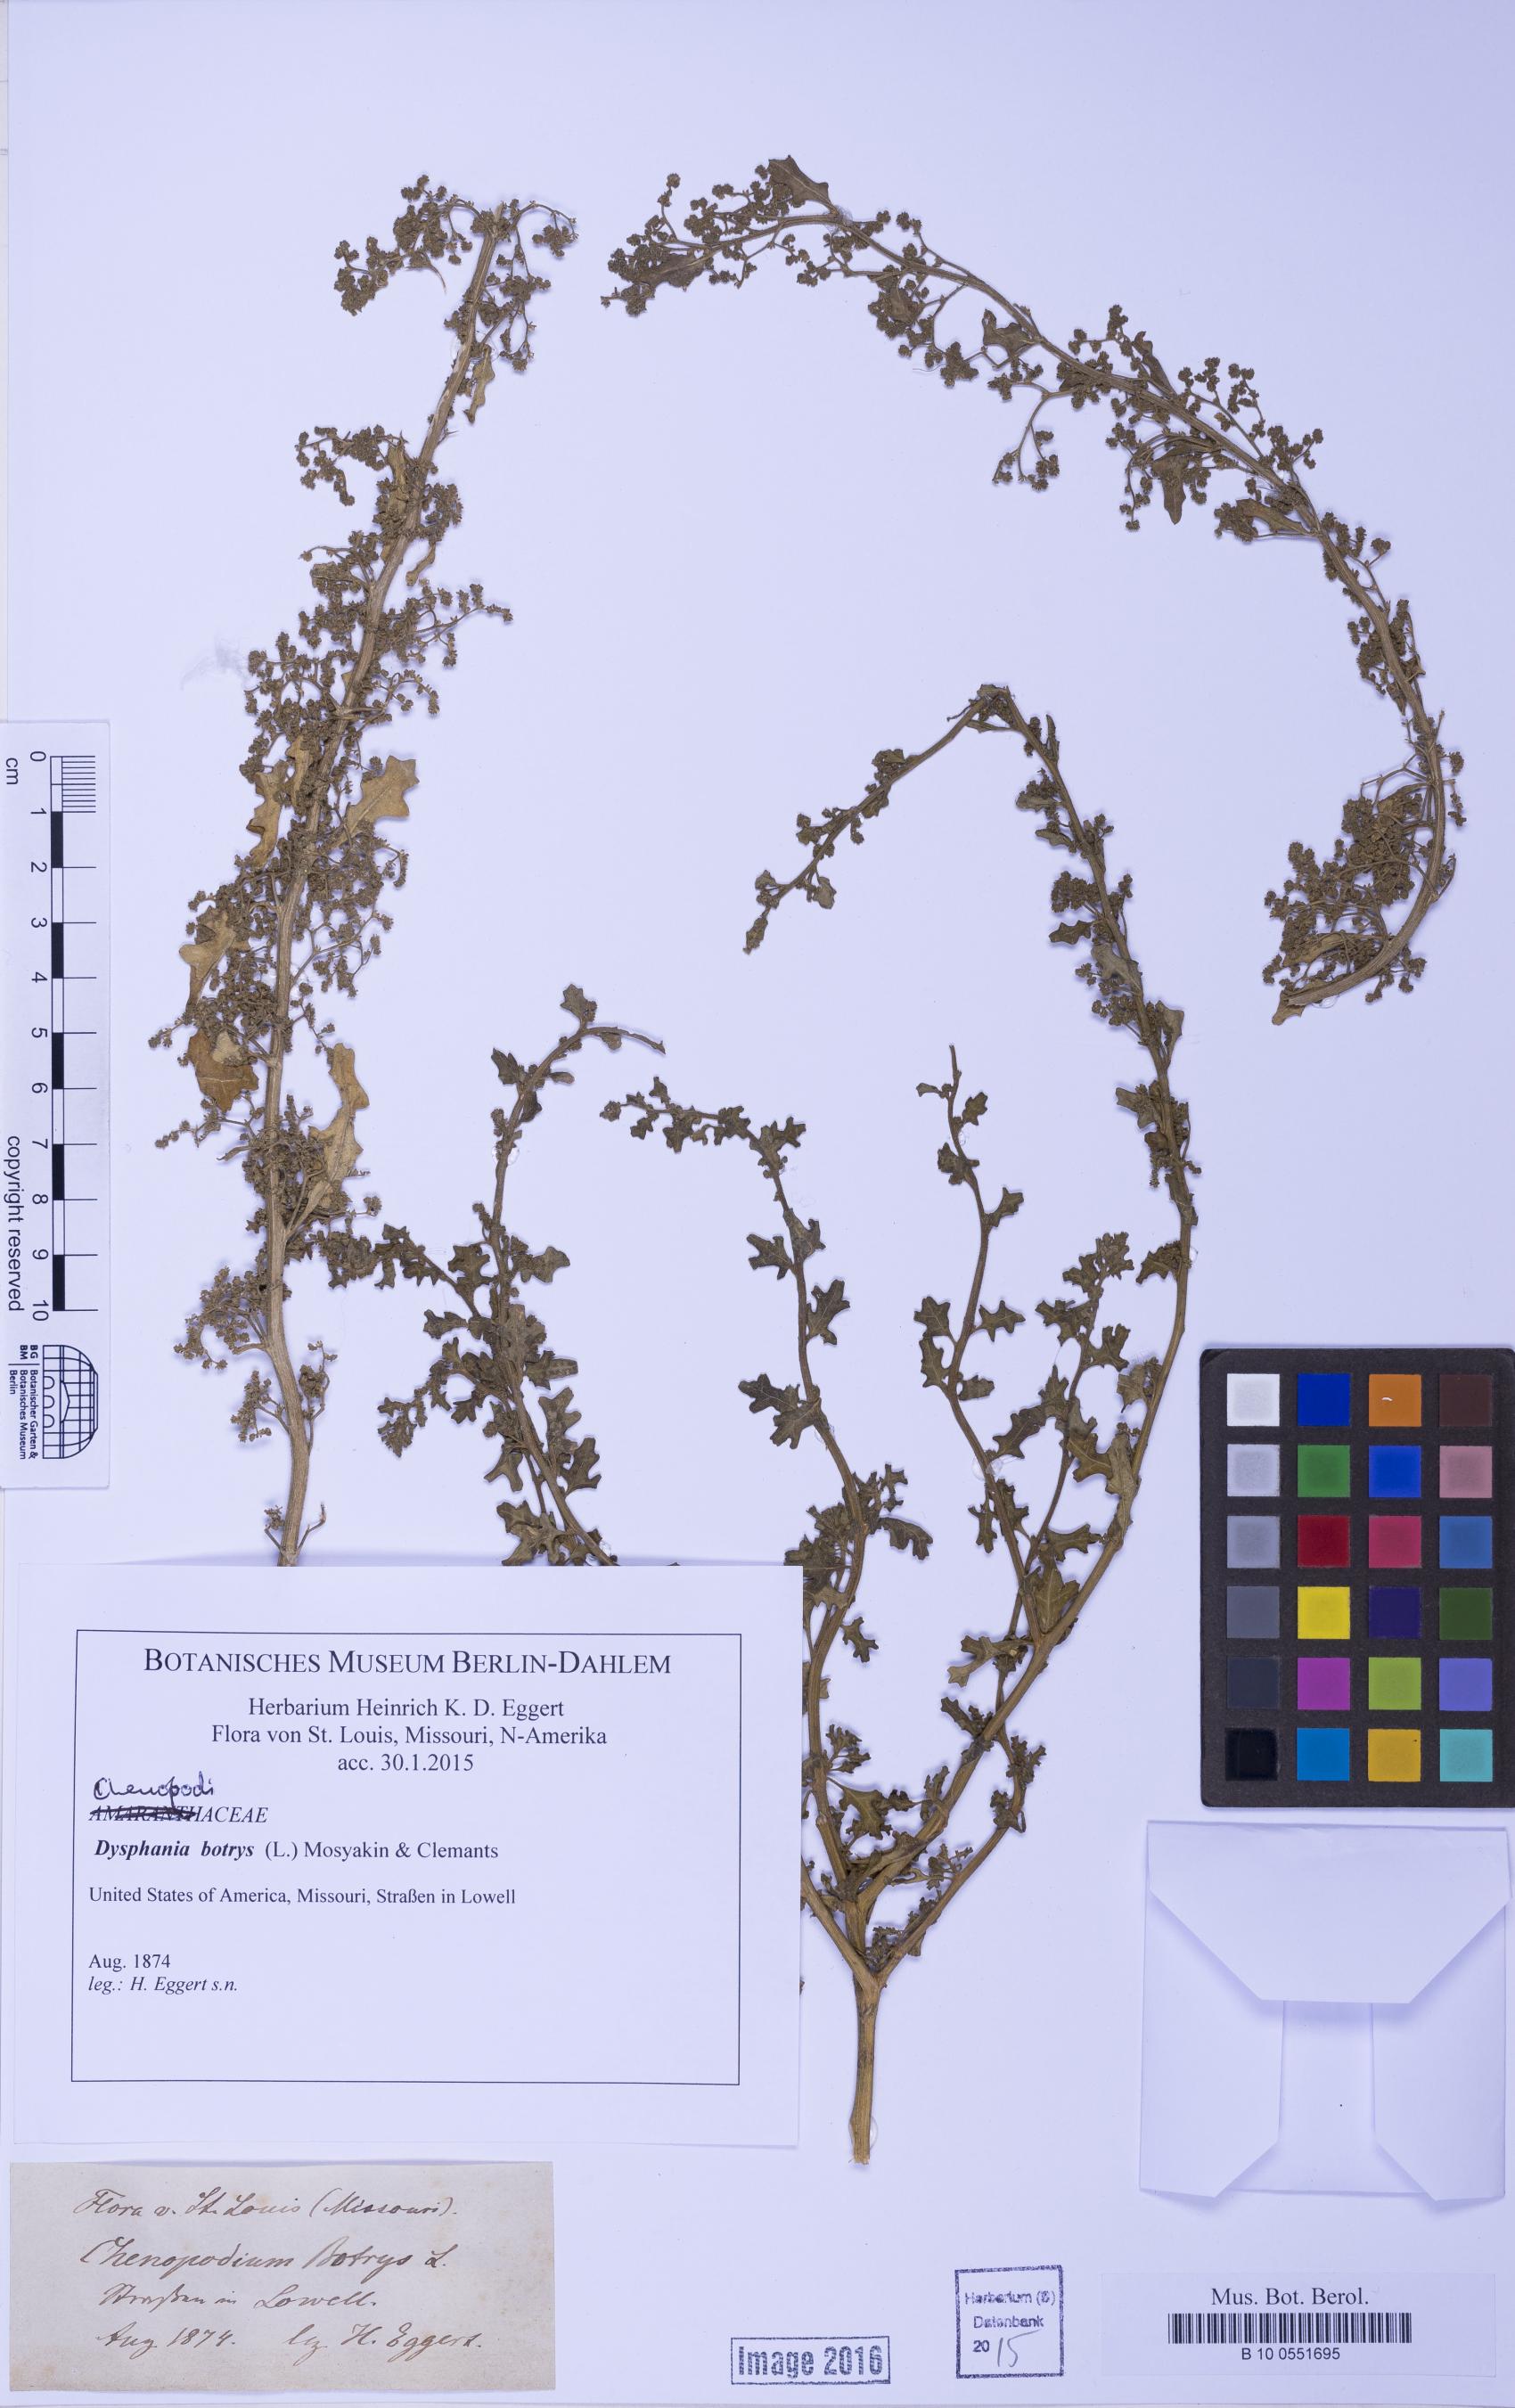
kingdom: Plantae
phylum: Tracheophyta
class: Magnoliopsida
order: Caryophyllales
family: Amaranthaceae
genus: Dysphania
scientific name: Dysphania botrys
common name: Feather-geranium
